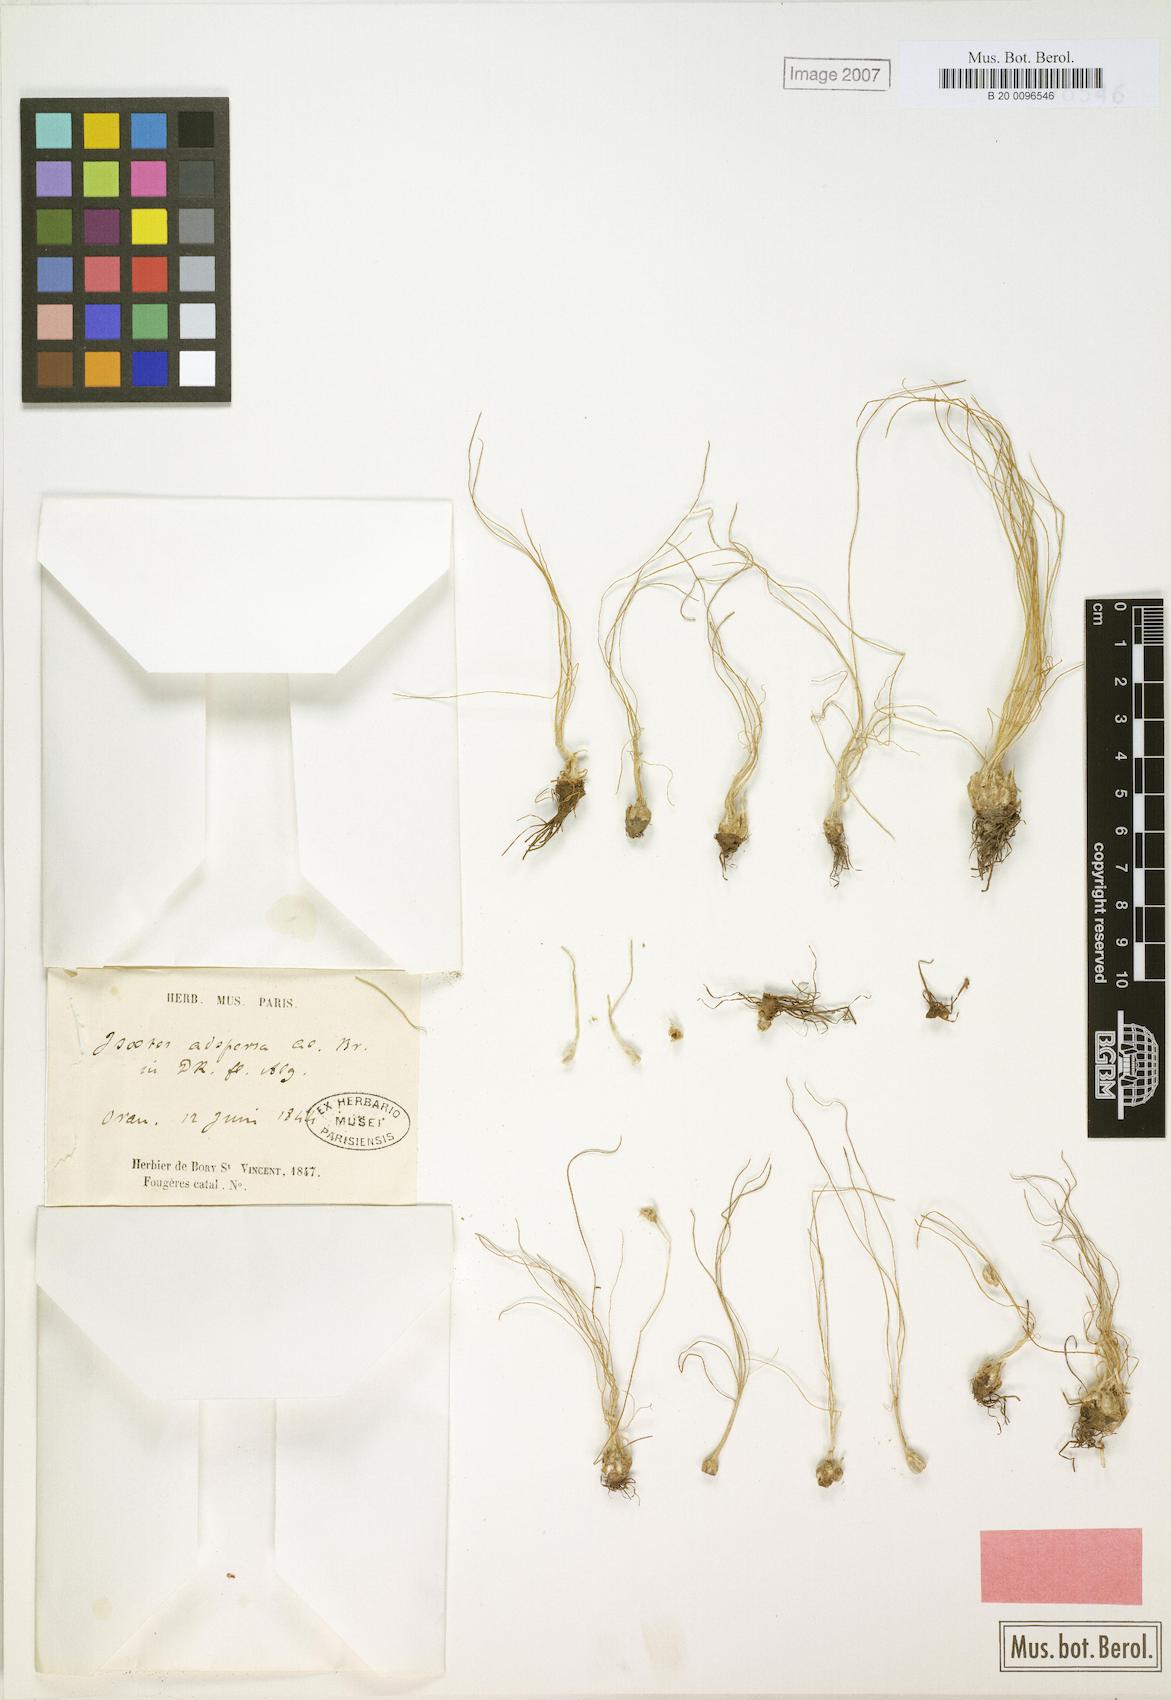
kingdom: Plantae
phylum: Tracheophyta
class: Lycopodiopsida
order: Isoetales
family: Isoetaceae
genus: Isoetes
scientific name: Isoetes longissima
